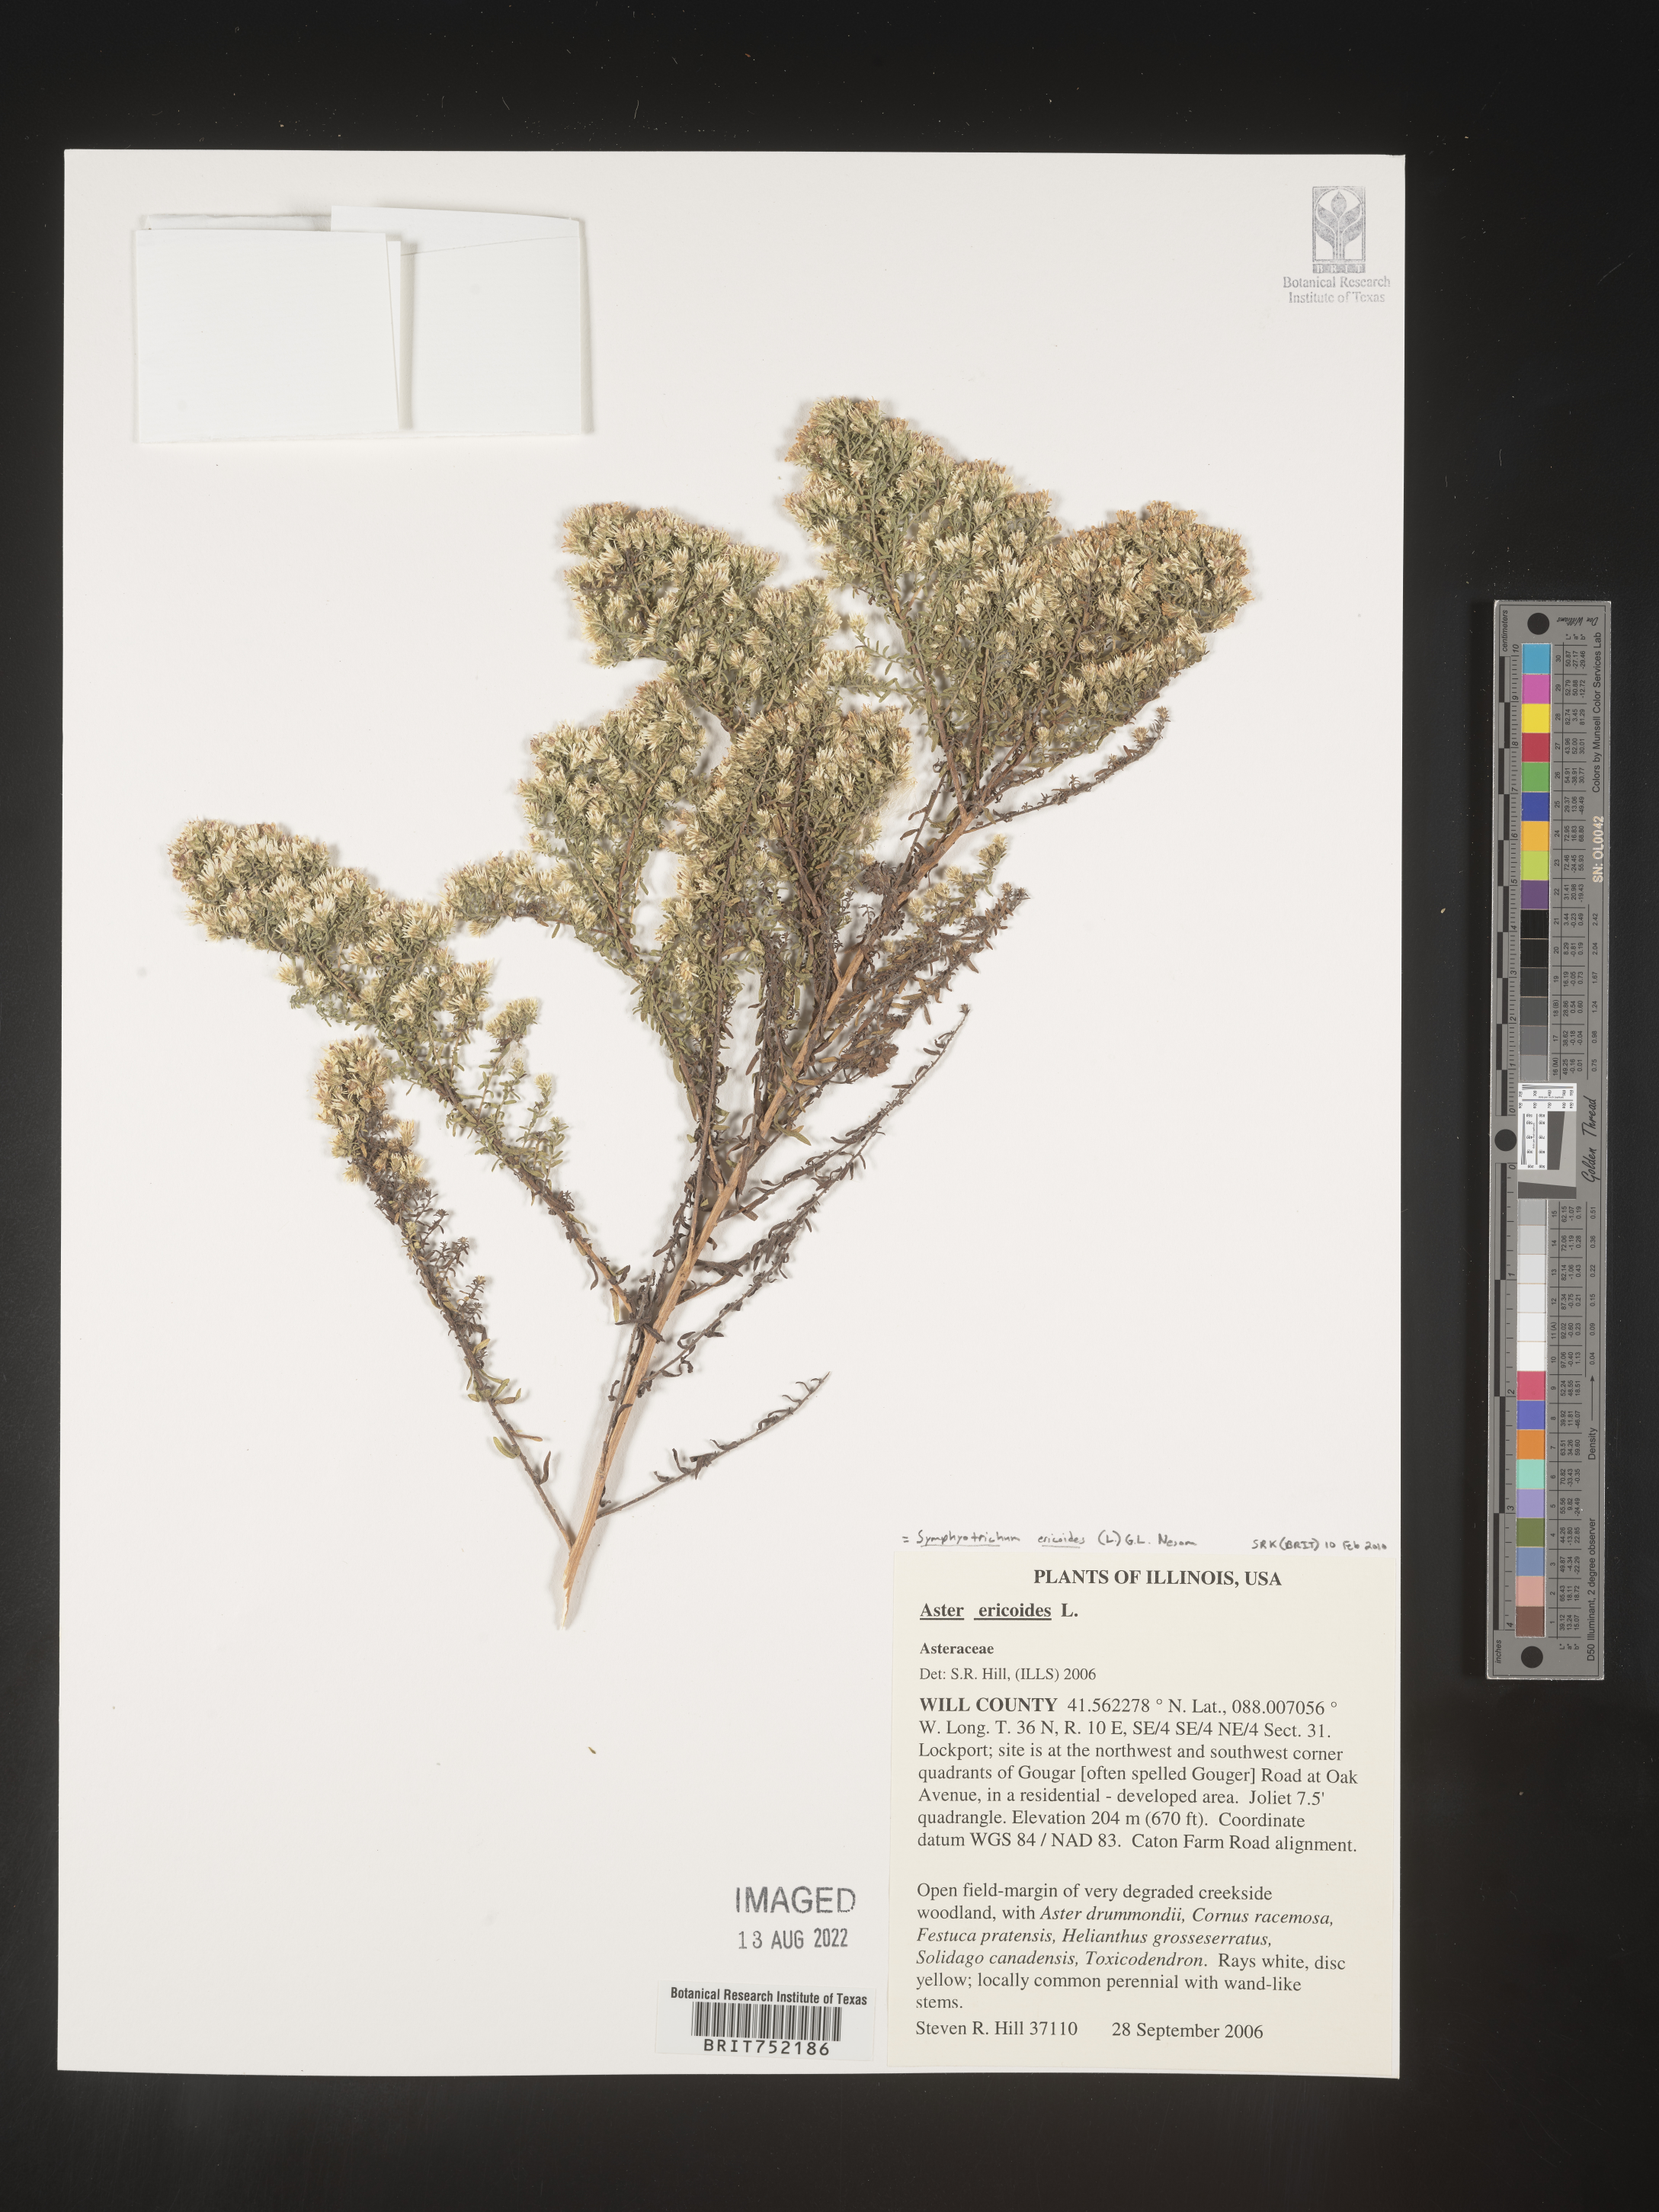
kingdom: Plantae
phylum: Tracheophyta
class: Magnoliopsida
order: Asterales
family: Asteraceae
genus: Symphyotrichum
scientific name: Symphyotrichum ericoides
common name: Heath aster
